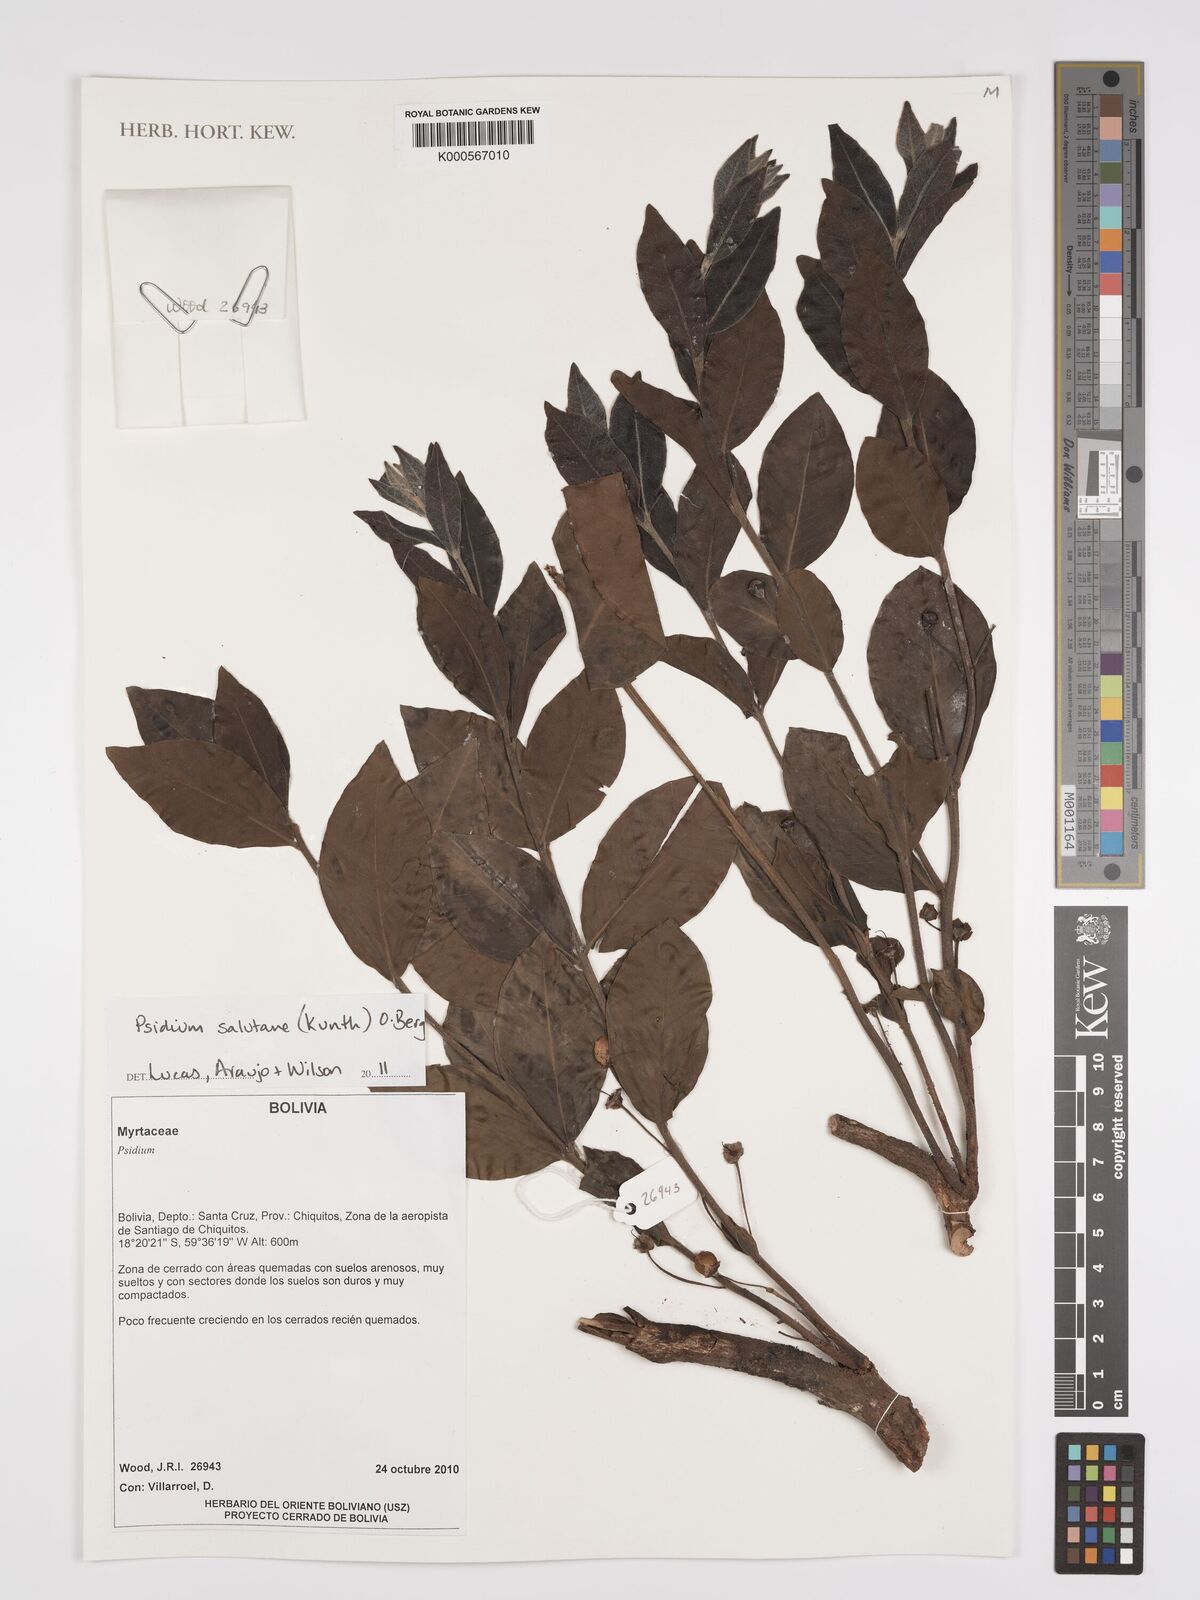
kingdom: Plantae
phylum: Tracheophyta
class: Magnoliopsida
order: Myrtales
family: Myrtaceae
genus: Psidium
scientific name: Psidium salutare
